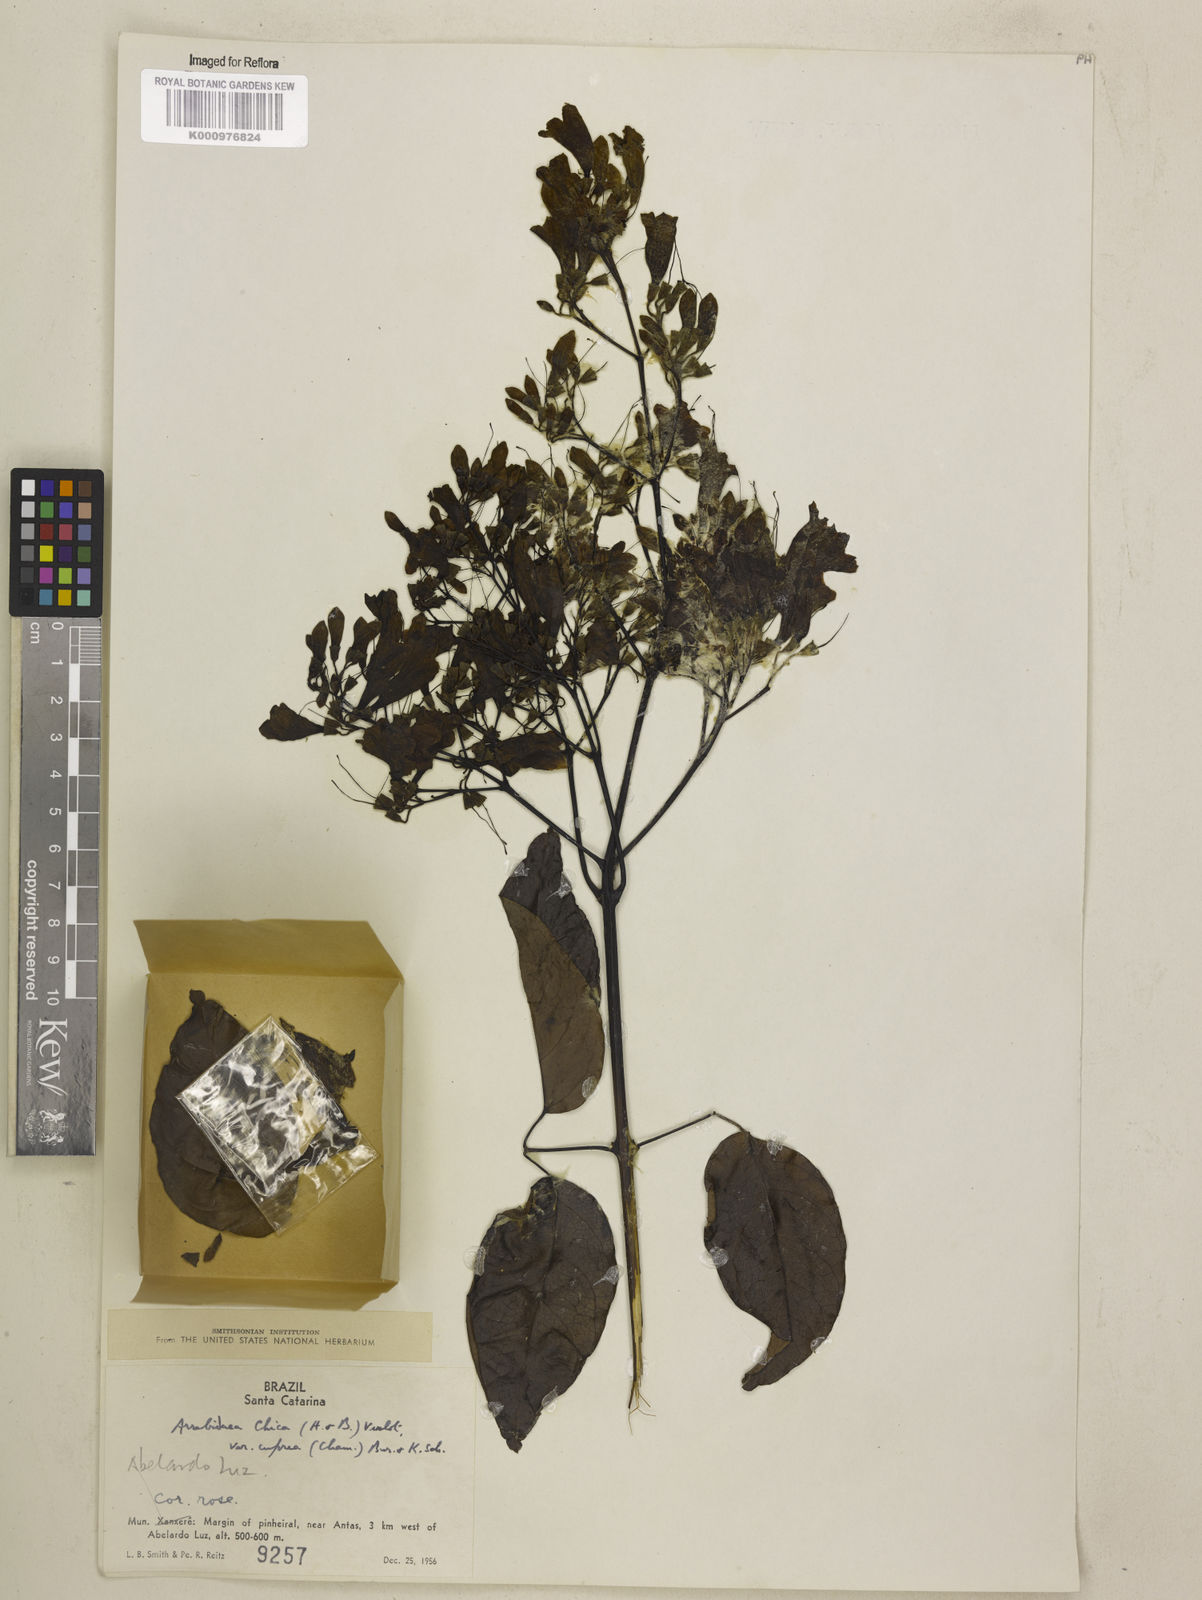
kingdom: Plantae
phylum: Tracheophyta
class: Magnoliopsida
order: Lamiales
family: Bignoniaceae
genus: Fridericia
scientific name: Fridericia chica
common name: Cricketvine
